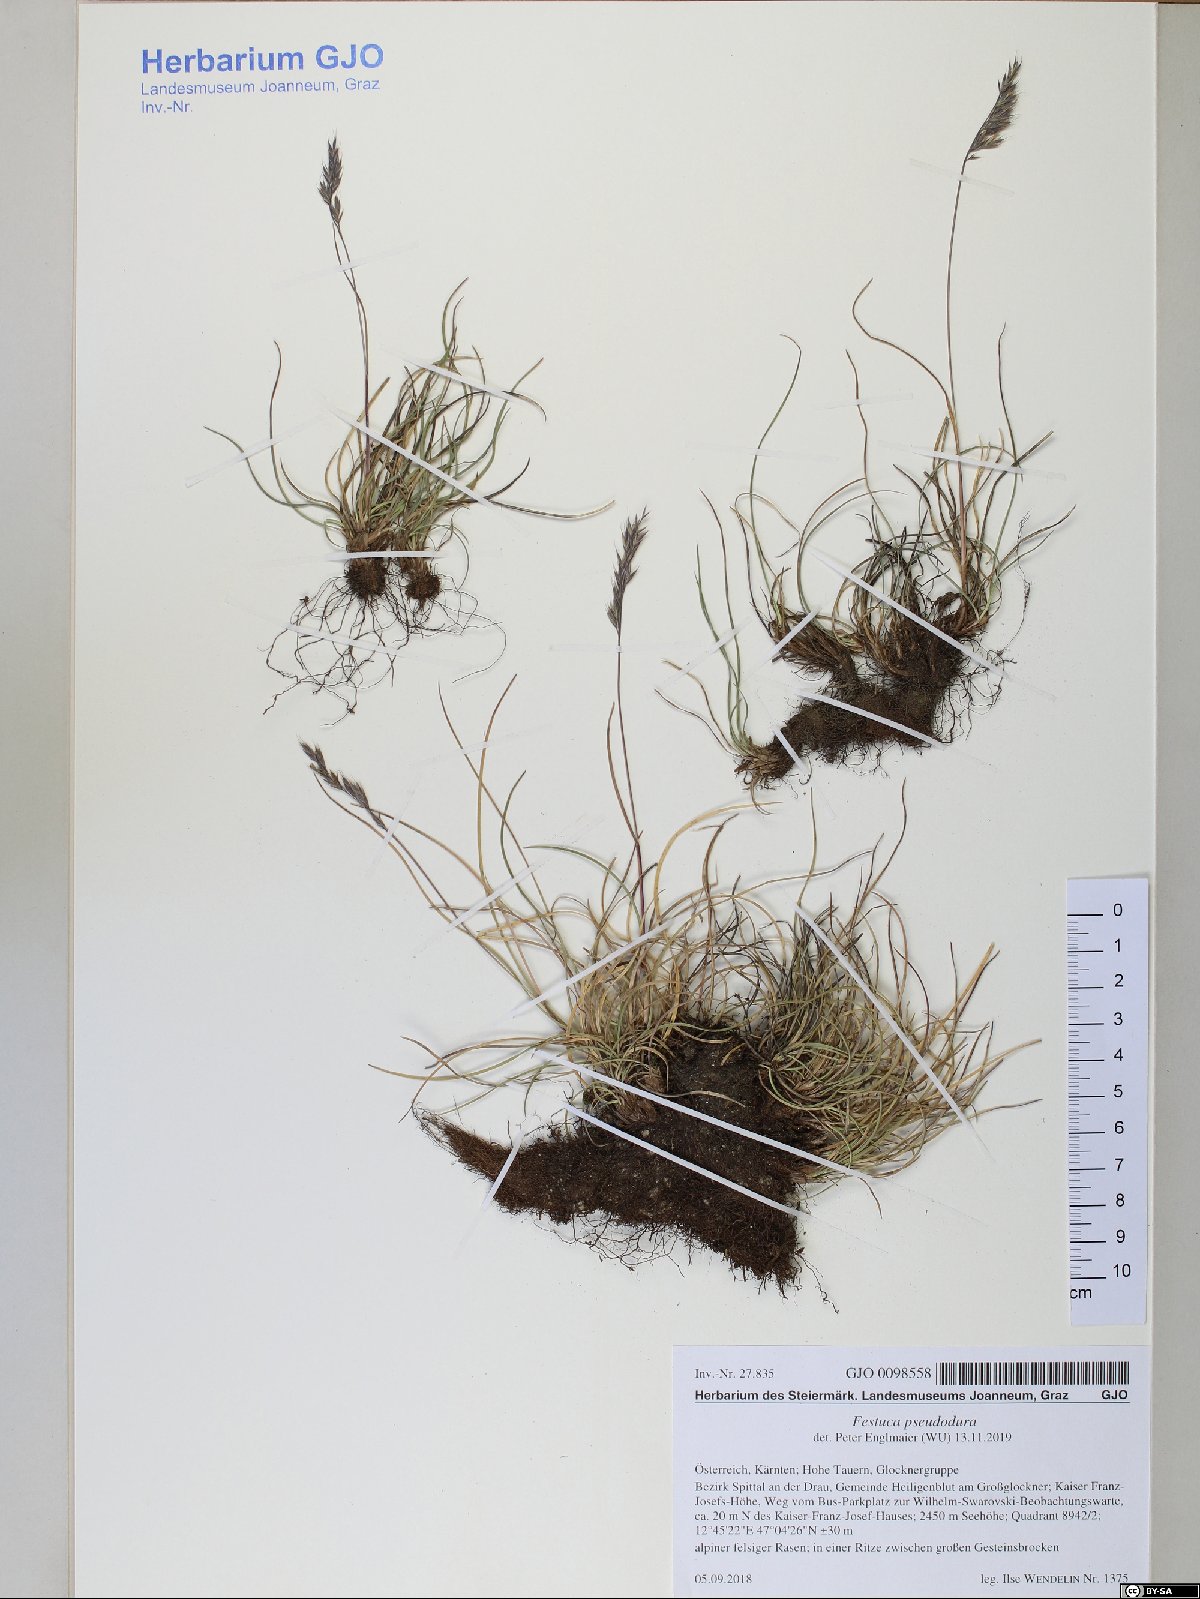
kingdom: Plantae
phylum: Tracheophyta
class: Liliopsida
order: Poales
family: Poaceae
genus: Festuca
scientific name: Festuca pseudodura
